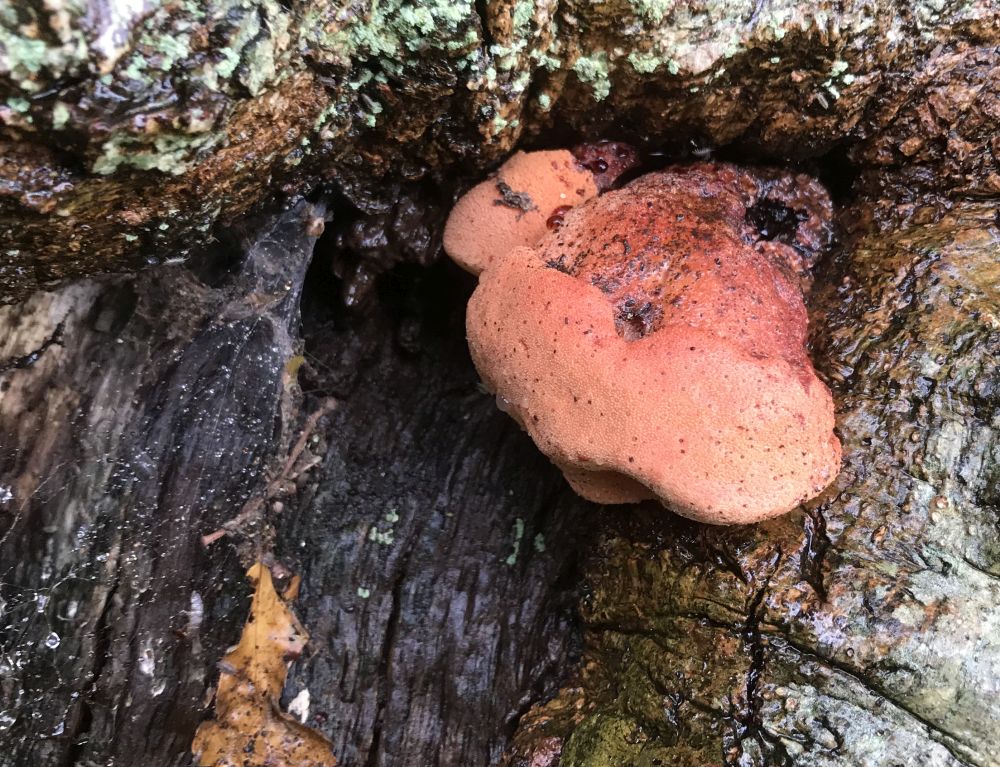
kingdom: Fungi
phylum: Basidiomycota
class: Agaricomycetes
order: Agaricales
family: Fistulinaceae
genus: Fistulina
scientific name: Fistulina hepatica
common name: oksetunge
